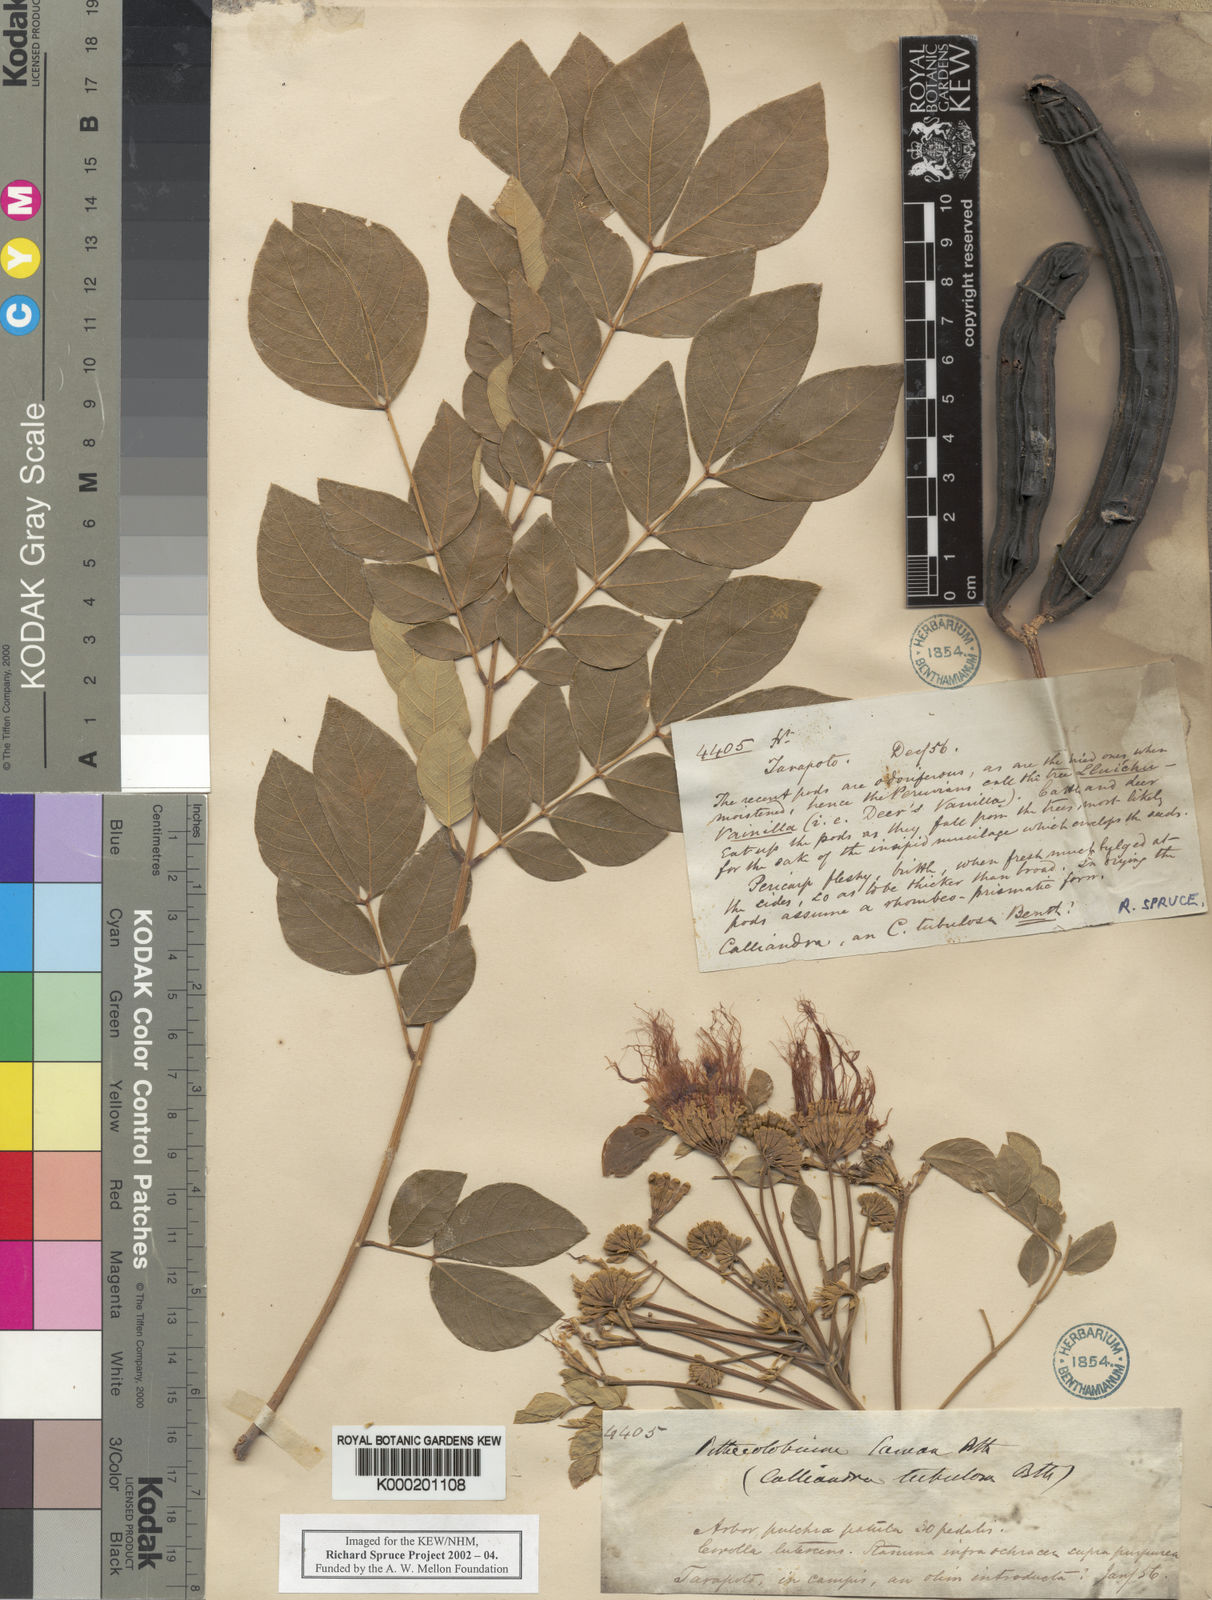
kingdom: Plantae
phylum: Tracheophyta
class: Magnoliopsida
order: Fabales
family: Fabaceae
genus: Samanea
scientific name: Samanea saman
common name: Raintree
